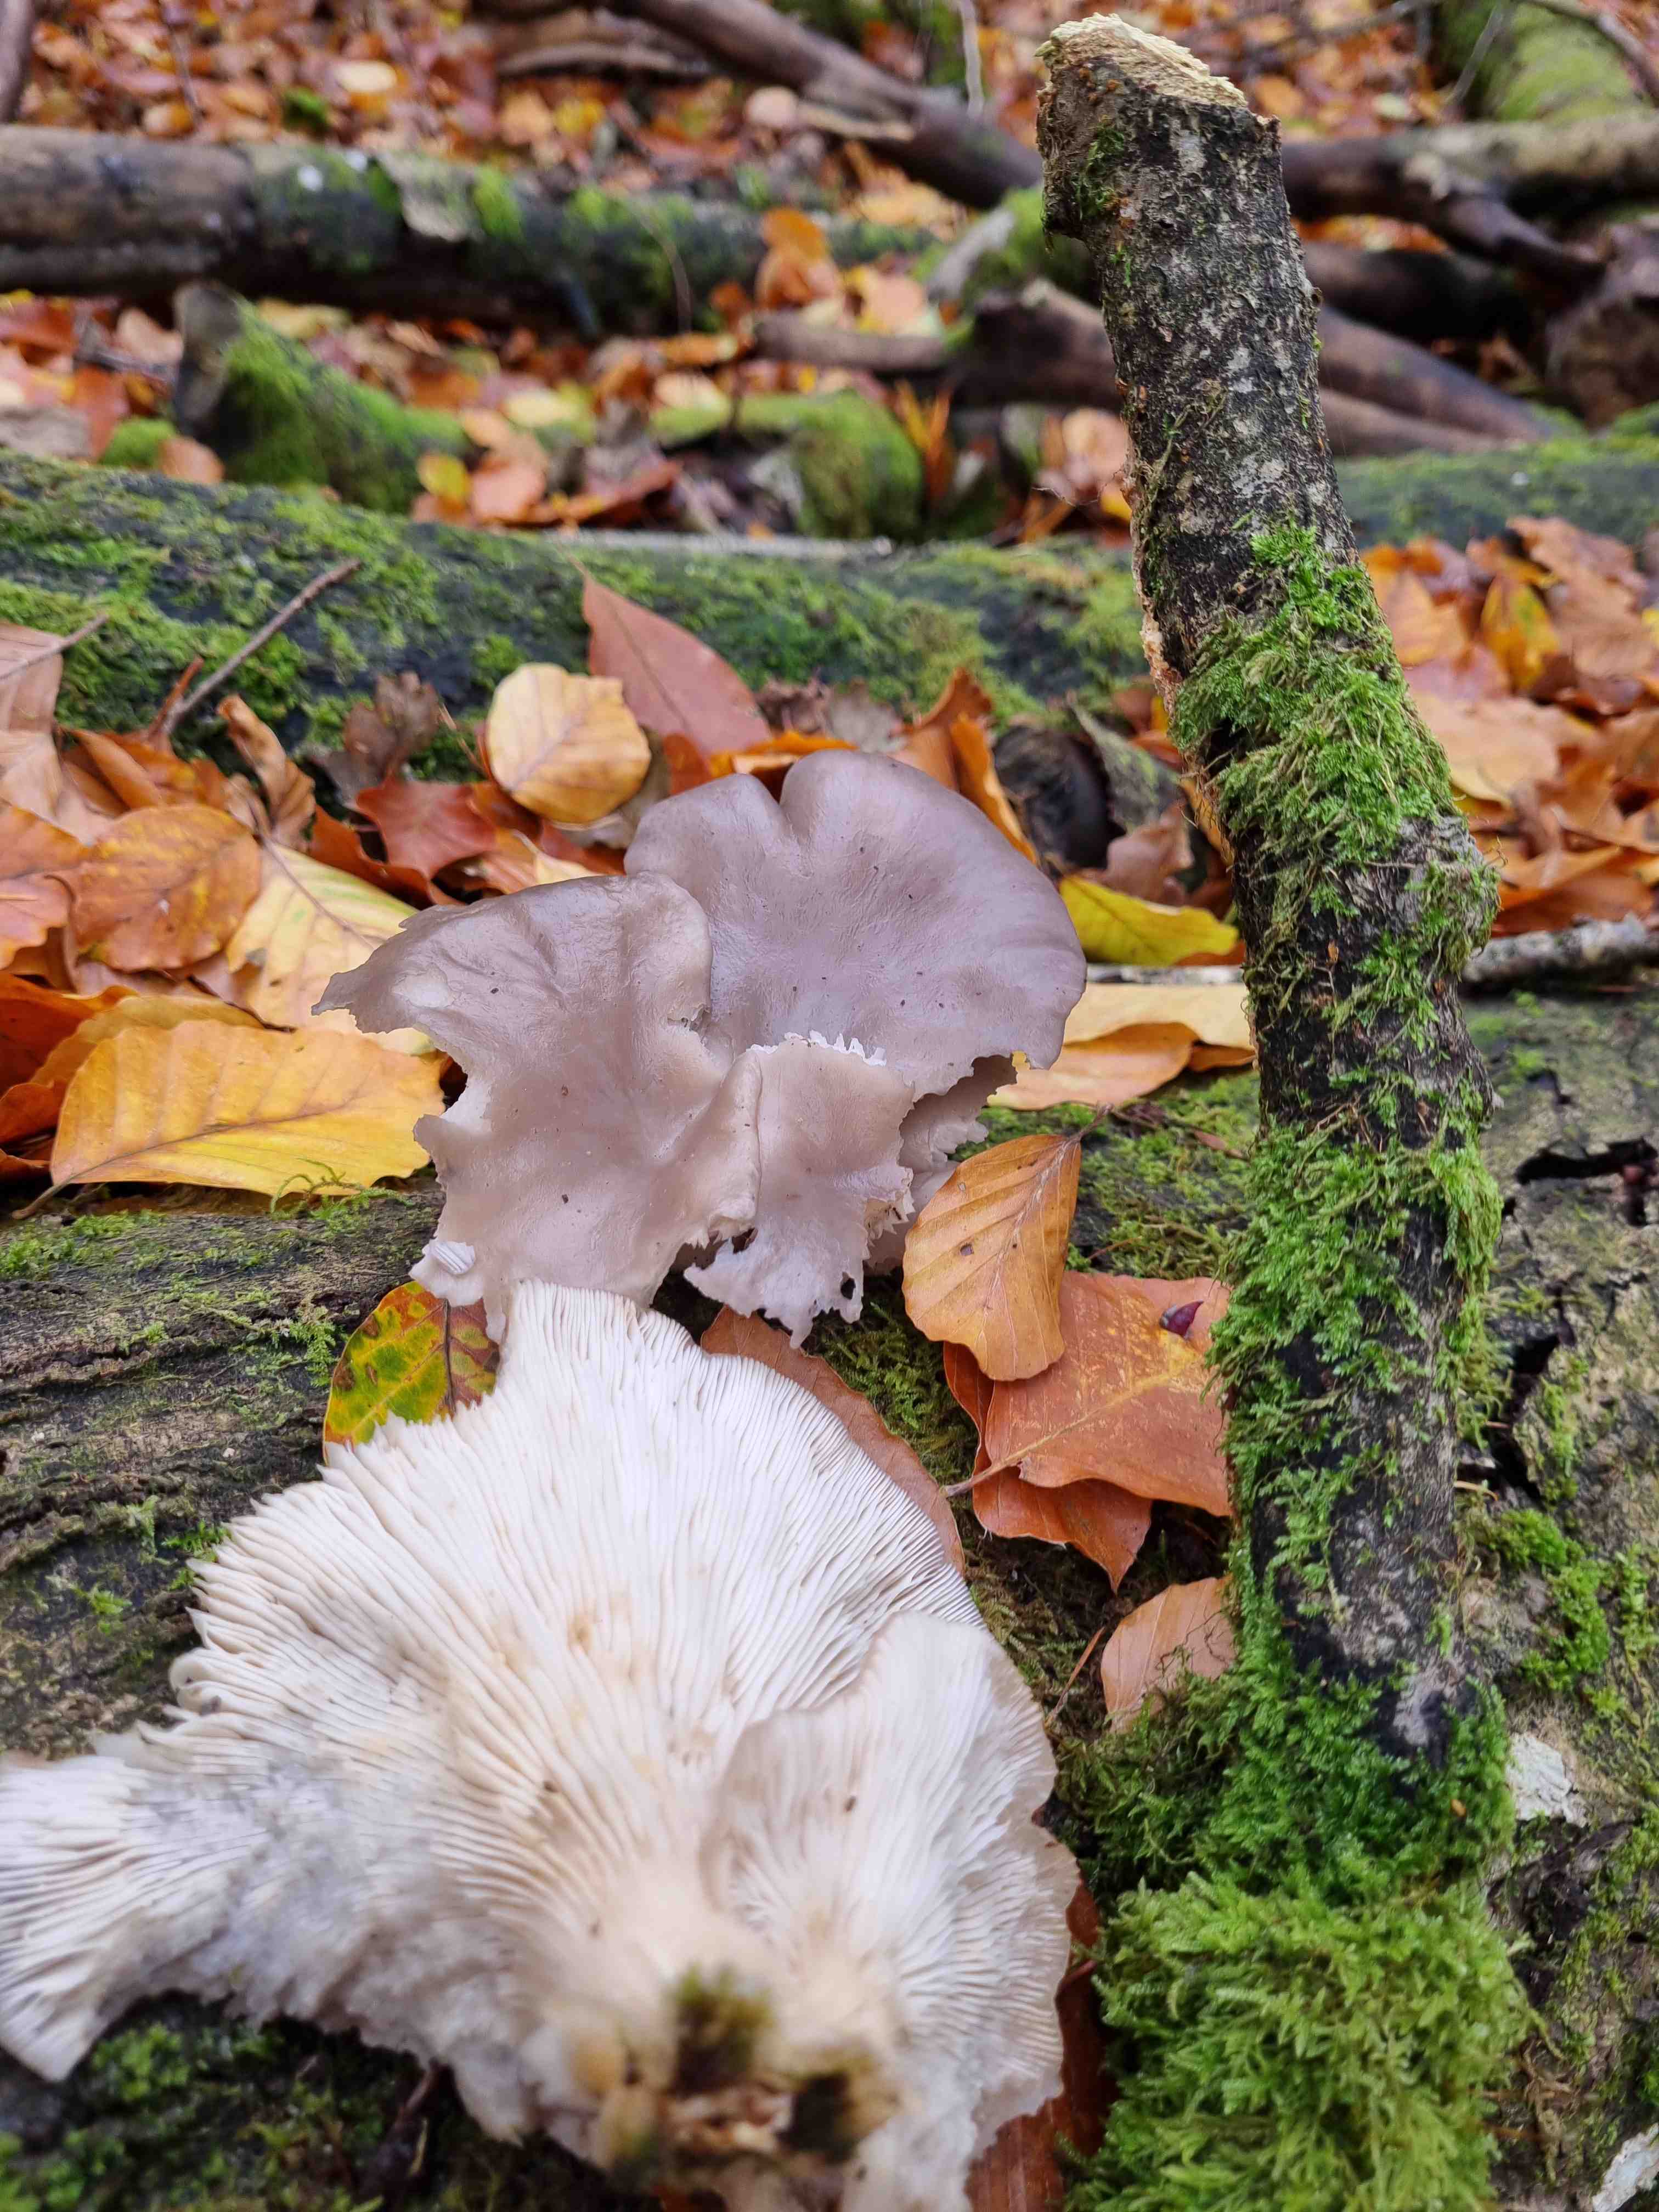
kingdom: Fungi
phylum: Basidiomycota
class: Agaricomycetes
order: Agaricales
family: Pleurotaceae
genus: Pleurotus
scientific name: Pleurotus ostreatus
